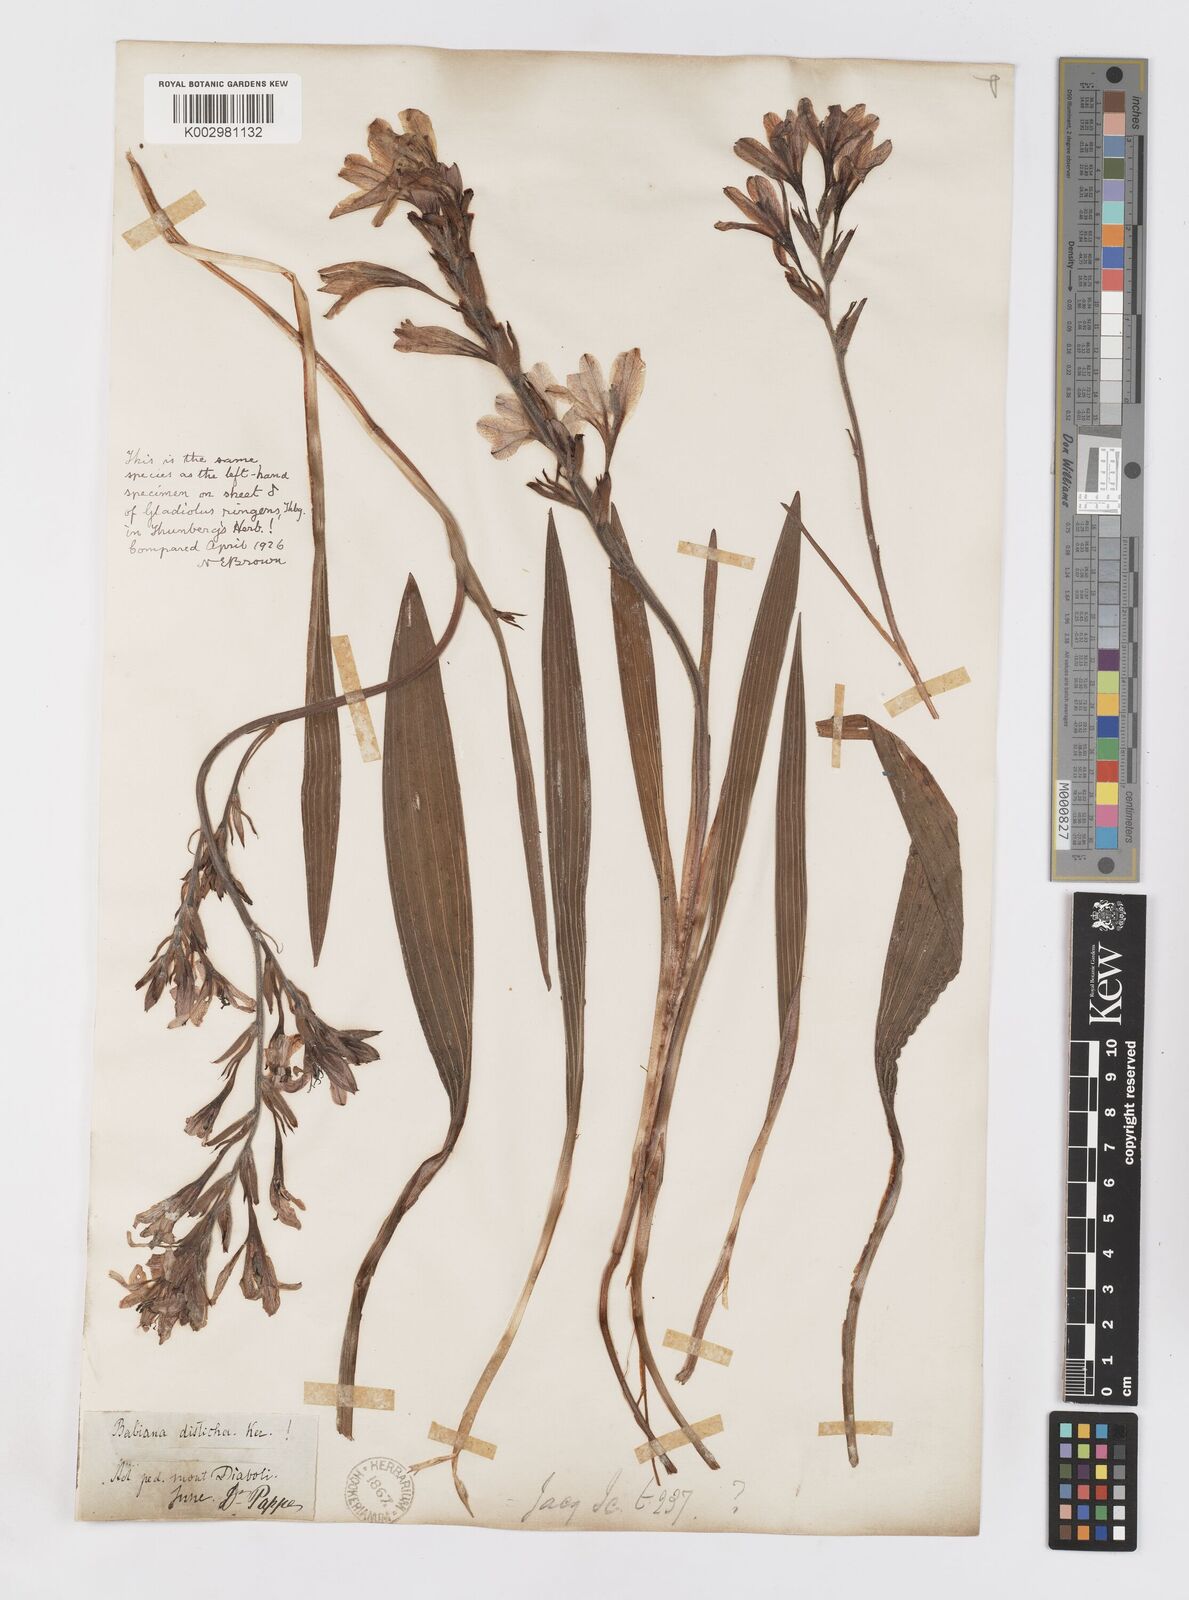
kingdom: Plantae
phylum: Tracheophyta
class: Liliopsida
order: Asparagales
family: Iridaceae
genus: Babiana
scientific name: Babiana
